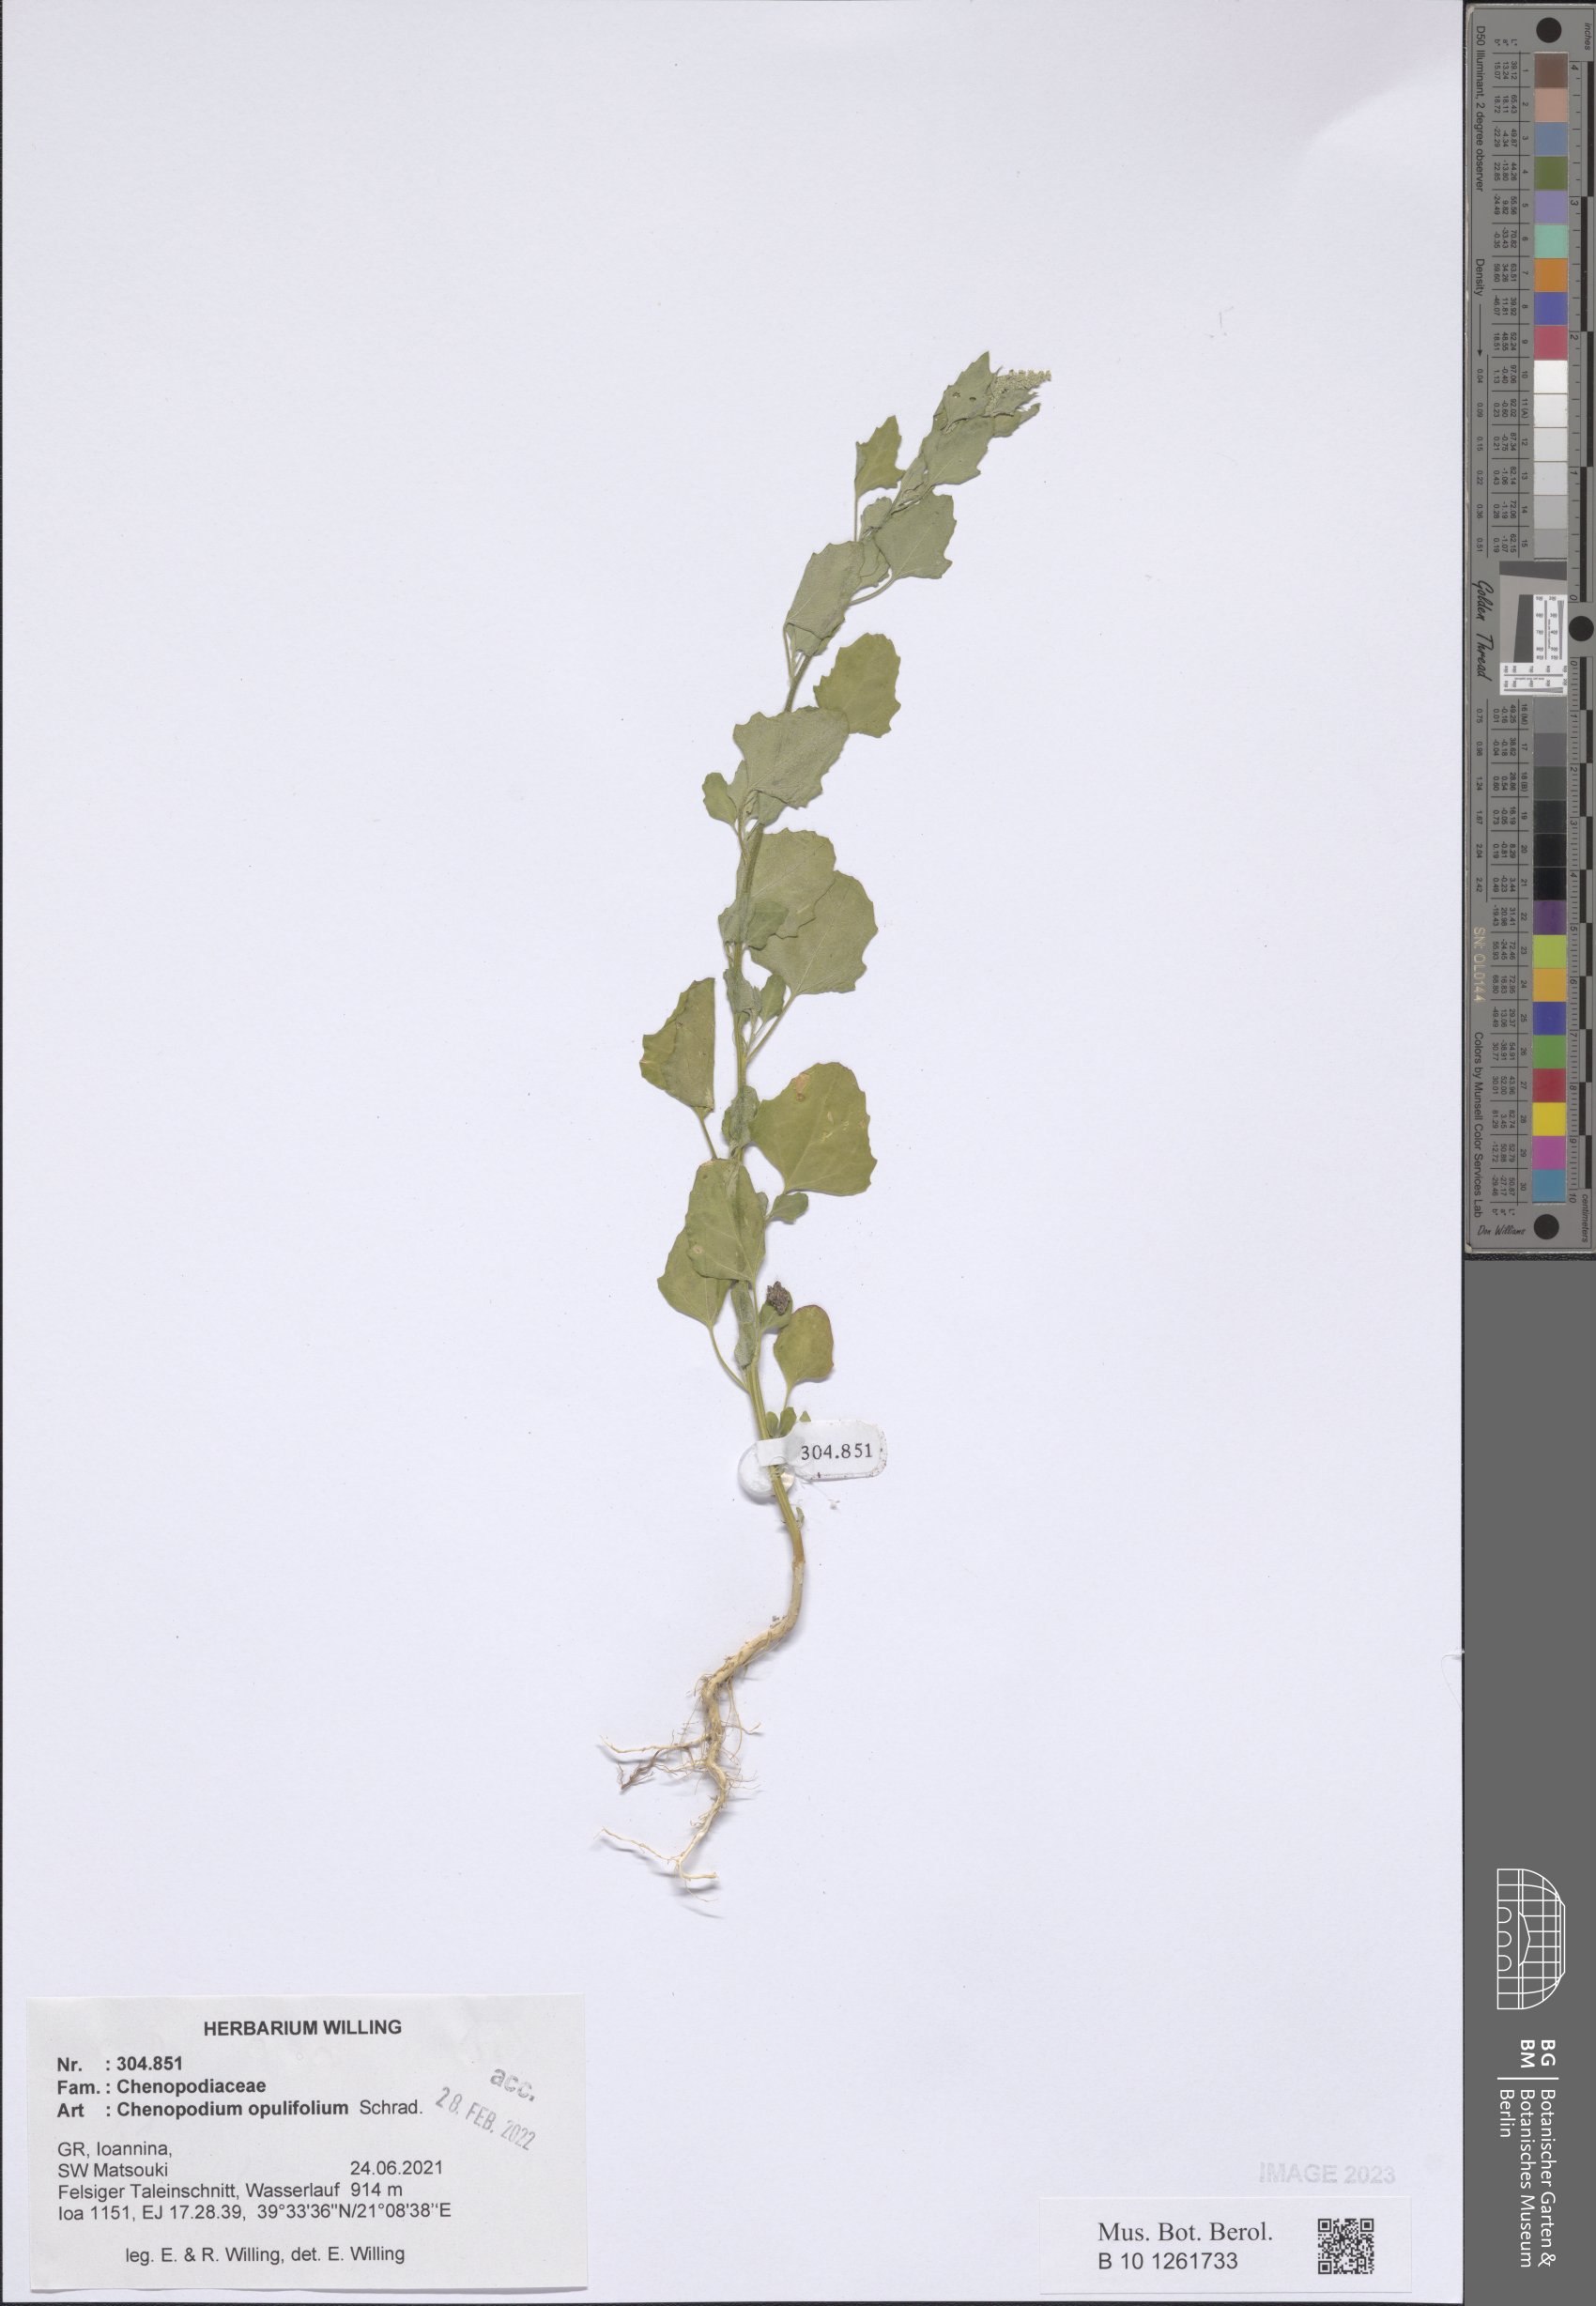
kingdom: Plantae
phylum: Tracheophyta
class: Magnoliopsida
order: Caryophyllales
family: Amaranthaceae
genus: Chenopodium
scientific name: Chenopodium opulifolium
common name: Grey goosefoot
